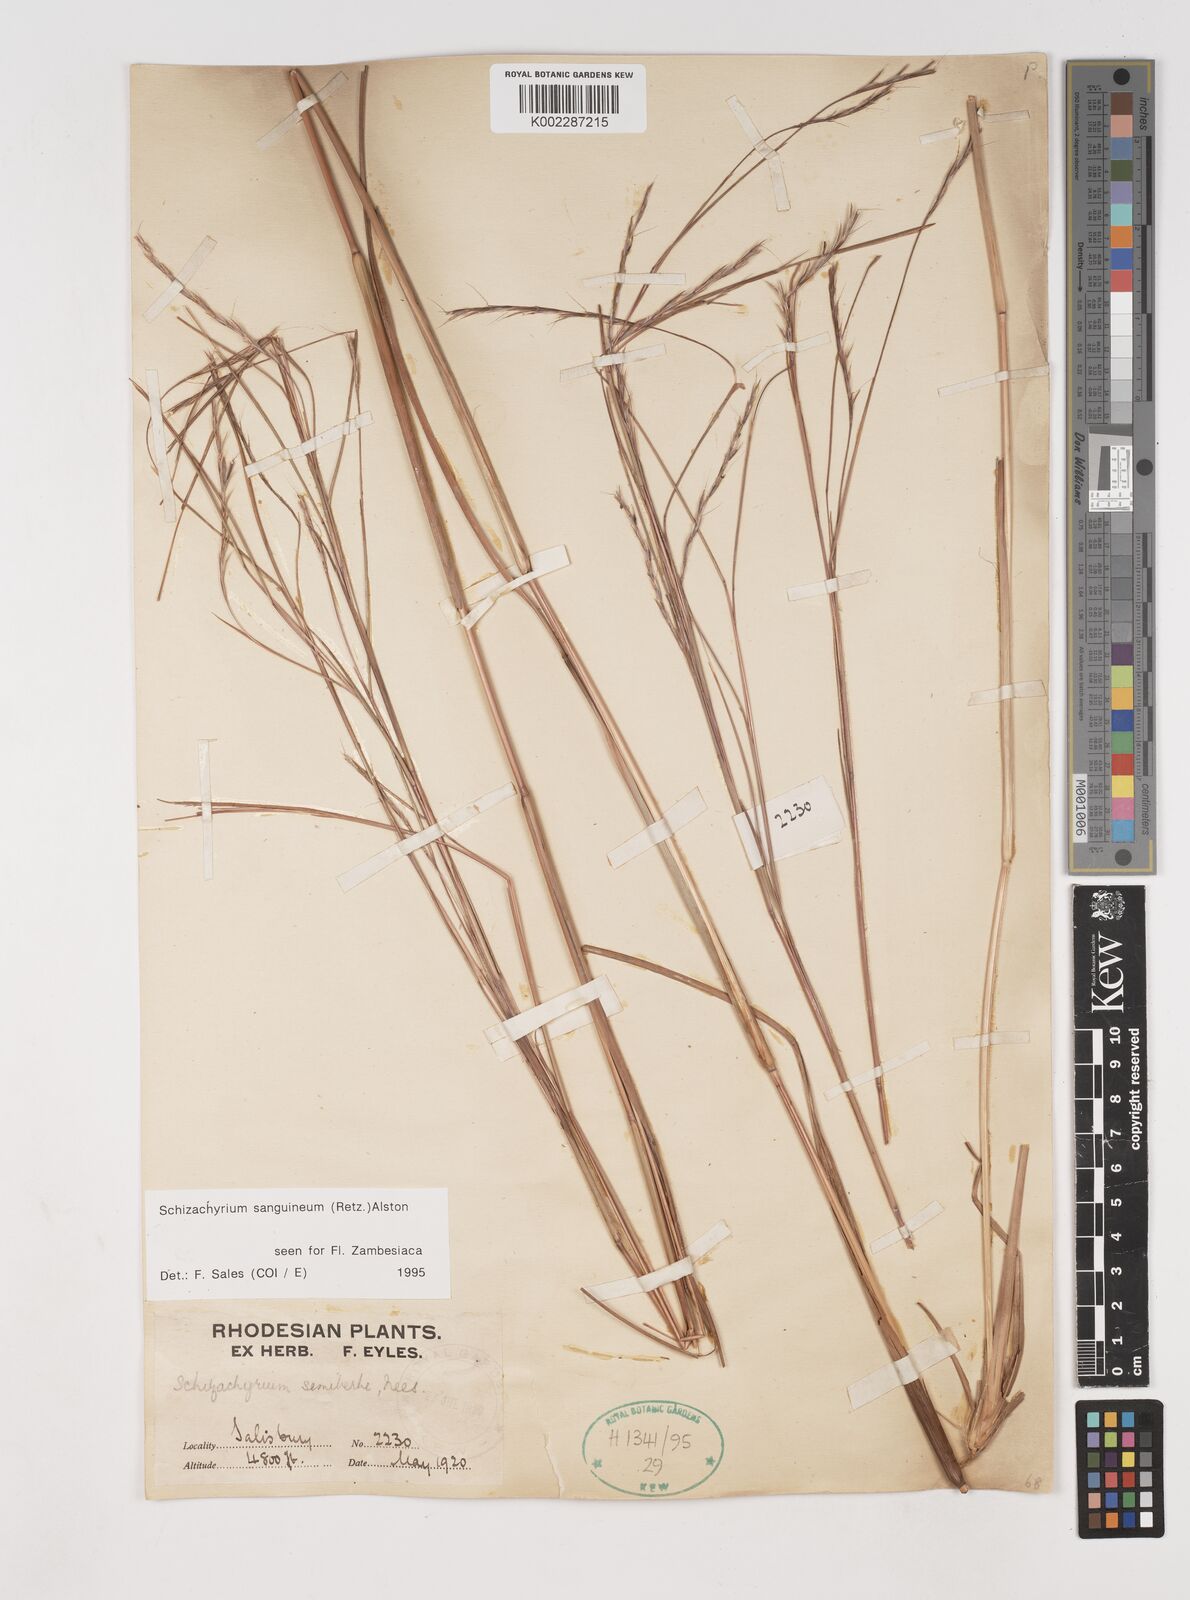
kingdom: Plantae
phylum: Tracheophyta
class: Liliopsida
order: Poales
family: Poaceae
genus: Schizachyrium
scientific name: Schizachyrium sanguineum
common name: Crimson bluestem
